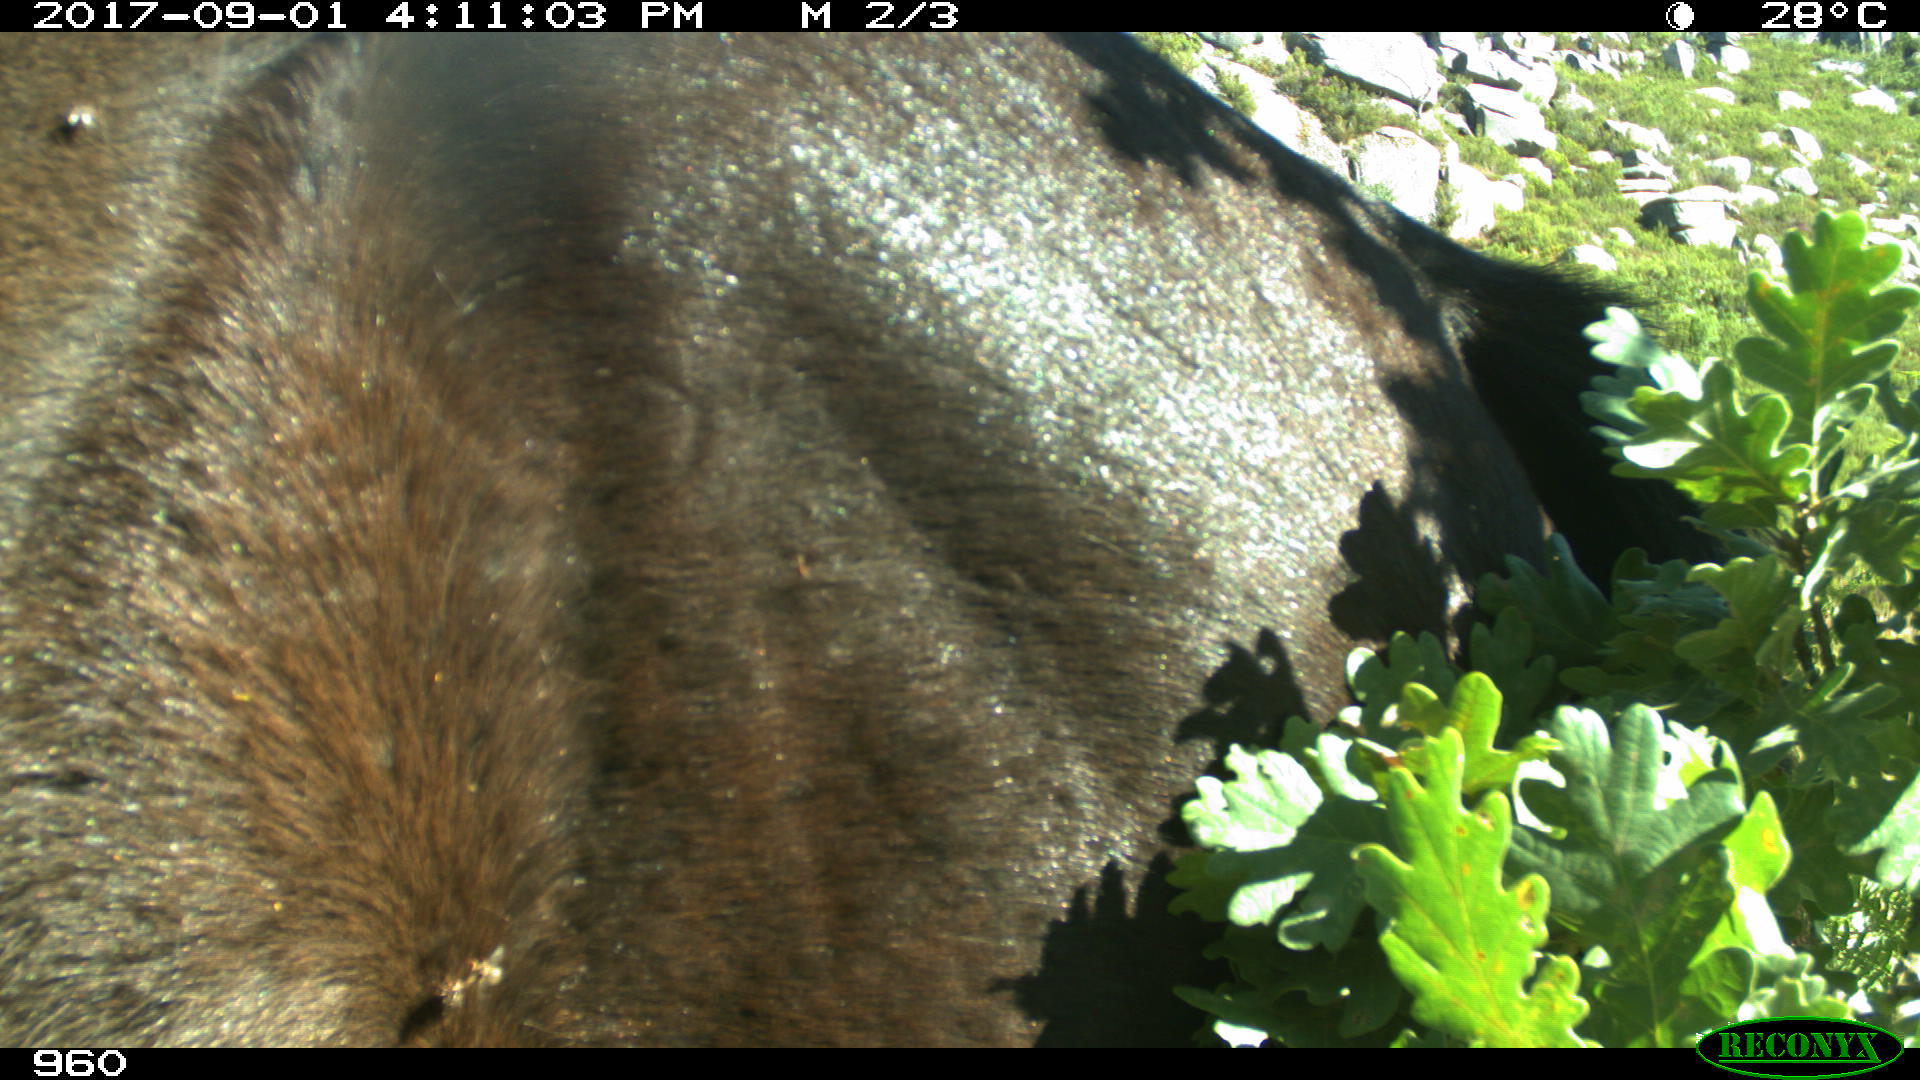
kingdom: Animalia
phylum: Chordata
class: Mammalia
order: Perissodactyla
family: Equidae
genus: Equus
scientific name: Equus caballus
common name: Horse
